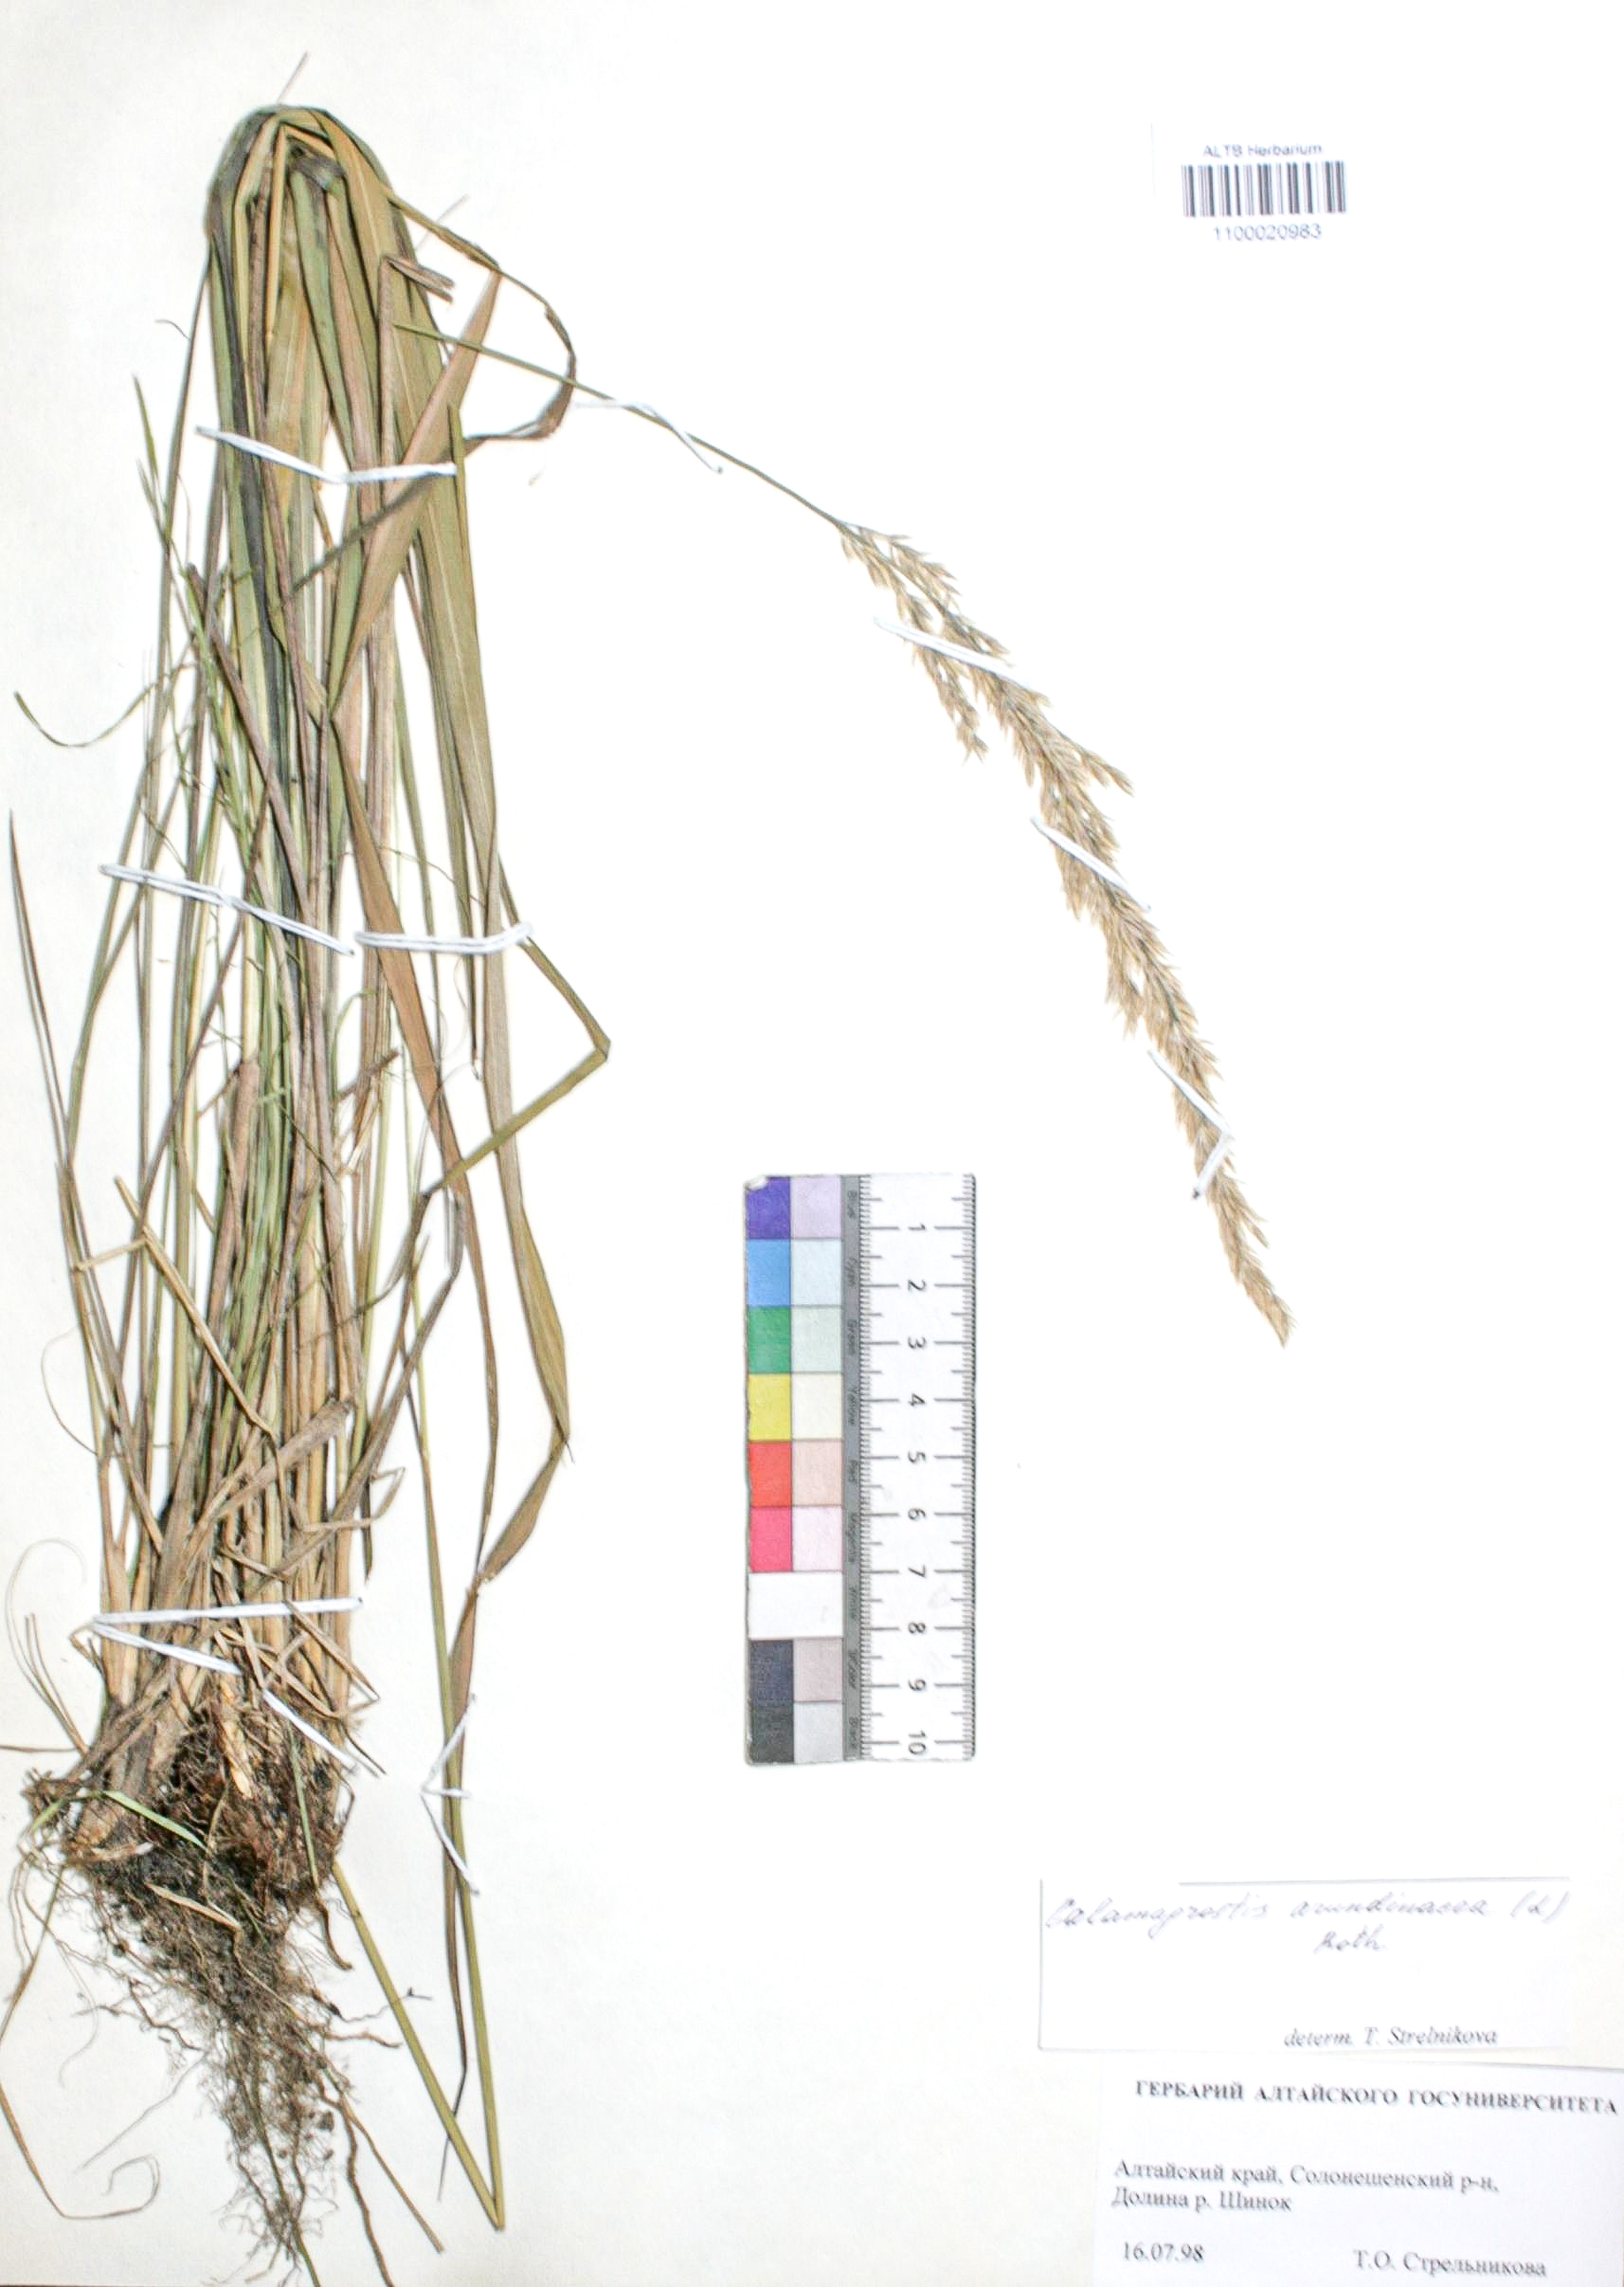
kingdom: Plantae
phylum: Tracheophyta
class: Liliopsida
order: Poales
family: Poaceae
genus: Calamagrostis
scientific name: Calamagrostis arundinacea
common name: Metskastik
